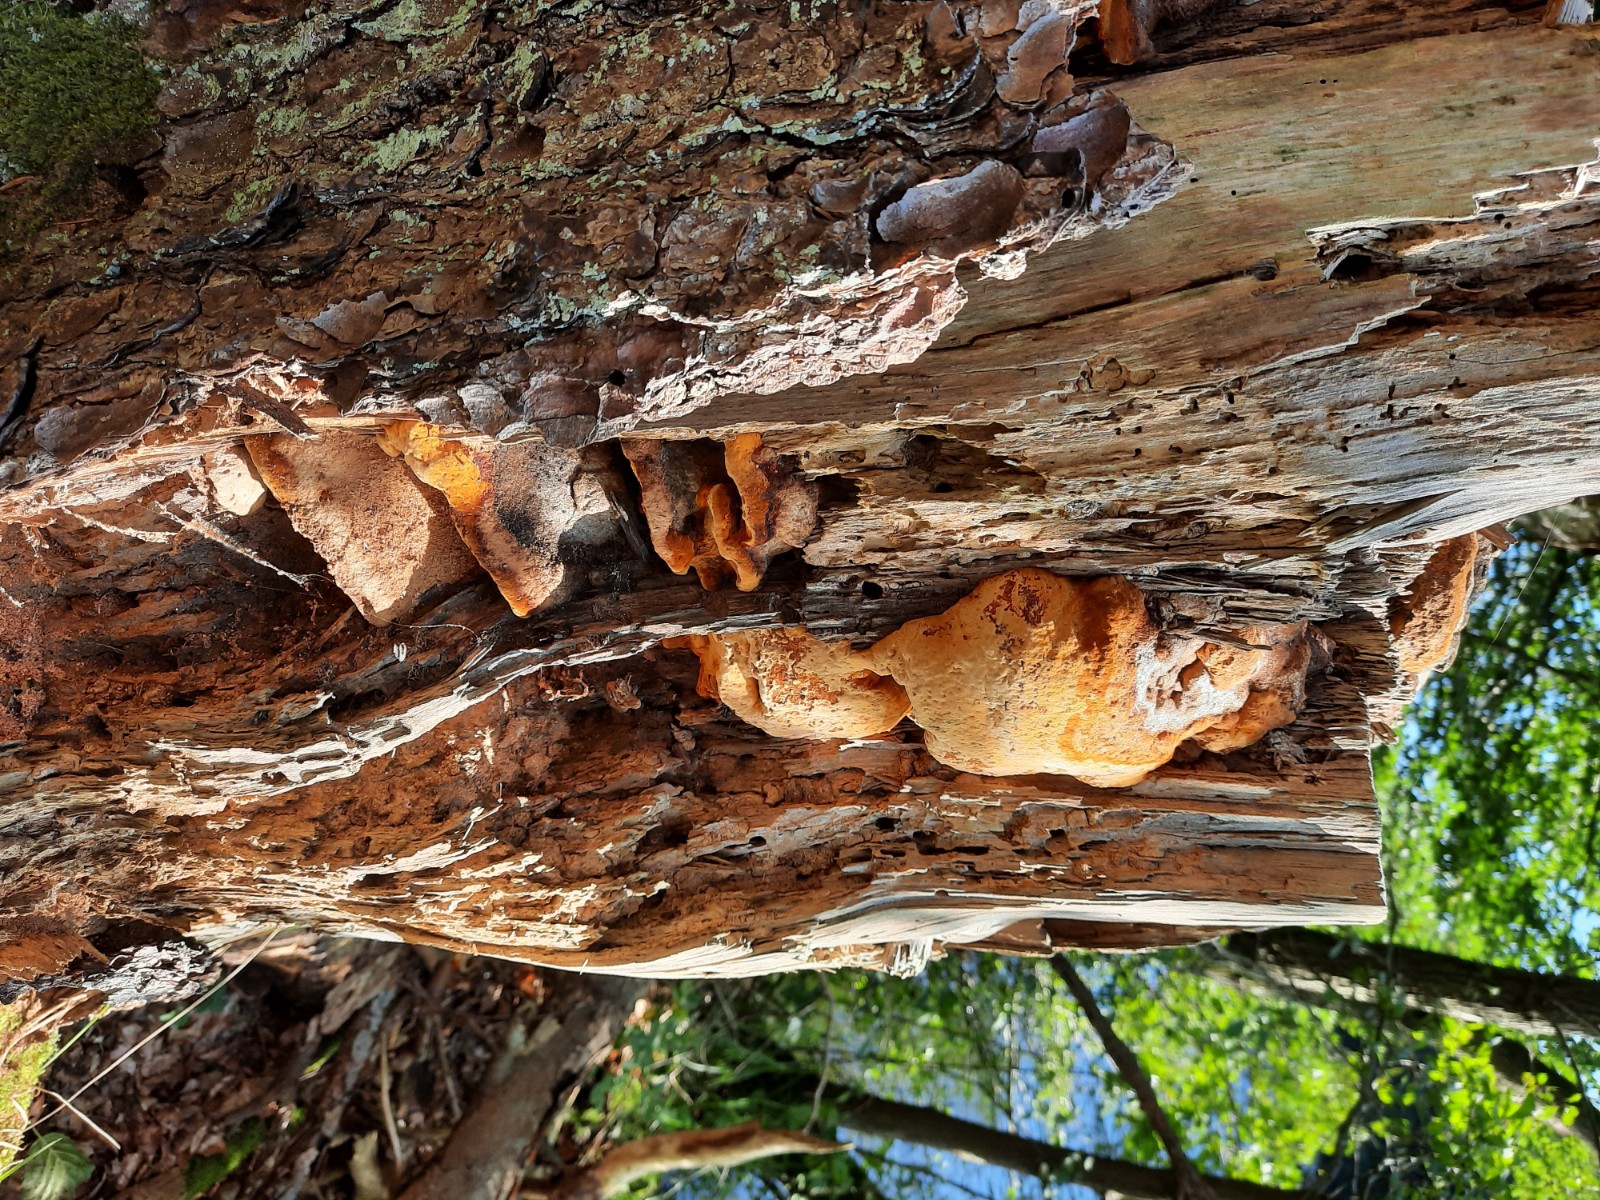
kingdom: Fungi
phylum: Basidiomycota
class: Agaricomycetes
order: Gloeophyllales
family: Gloeophyllaceae
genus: Gloeophyllum
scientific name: Gloeophyllum odoratum
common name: duftende korkhat
